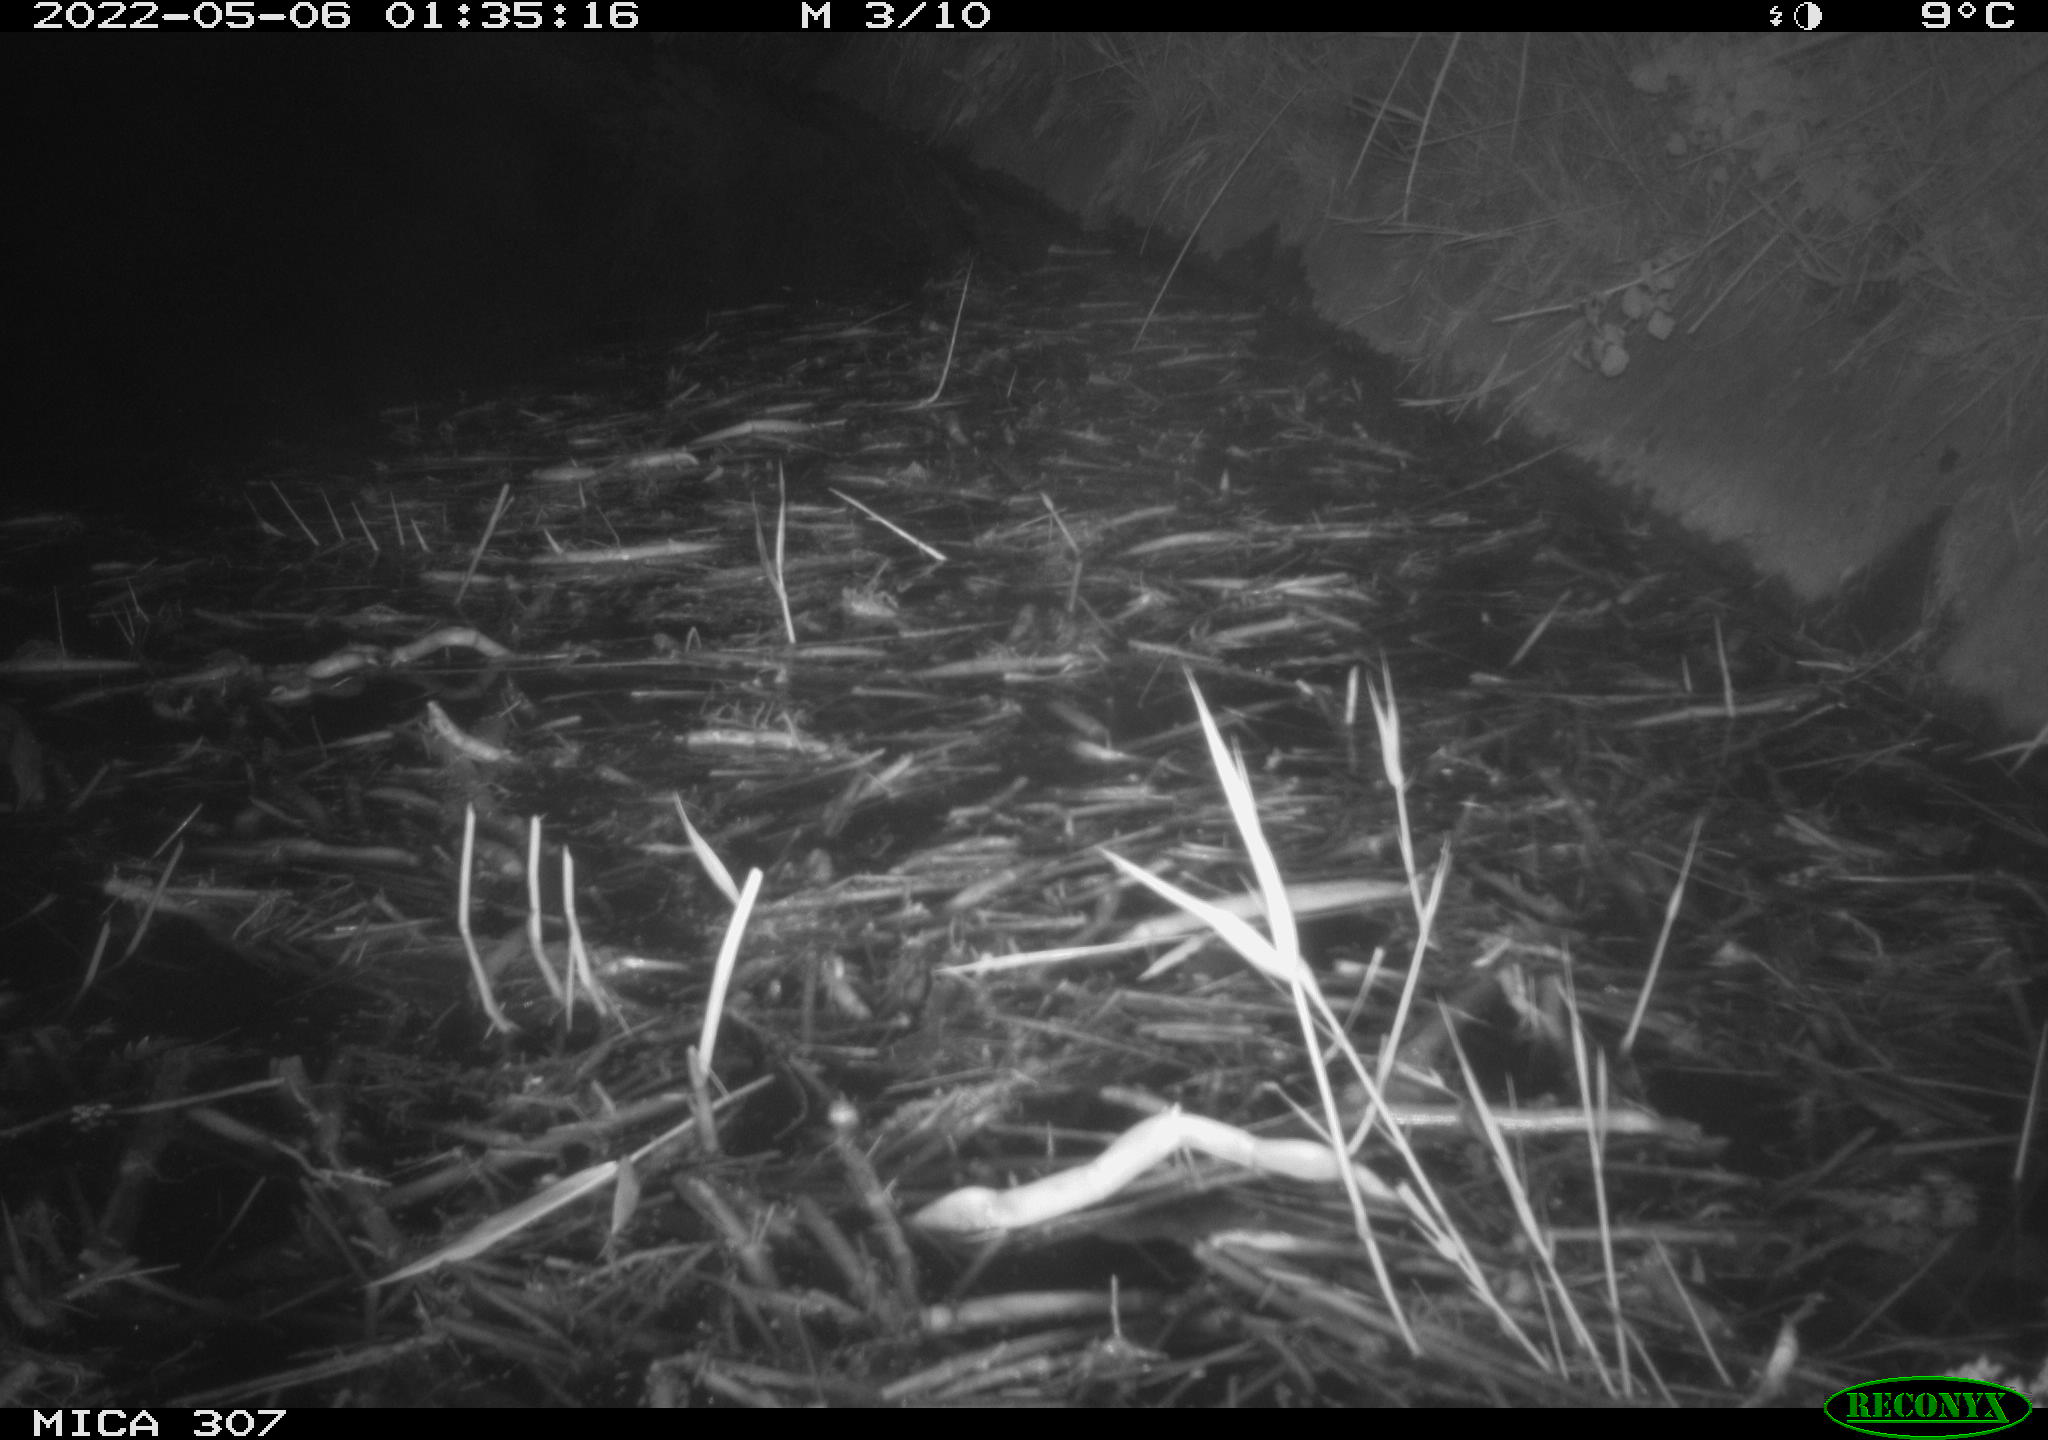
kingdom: Animalia
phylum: Chordata
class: Aves
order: Anseriformes
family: Anatidae
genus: Anas
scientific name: Anas platyrhynchos
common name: Mallard
